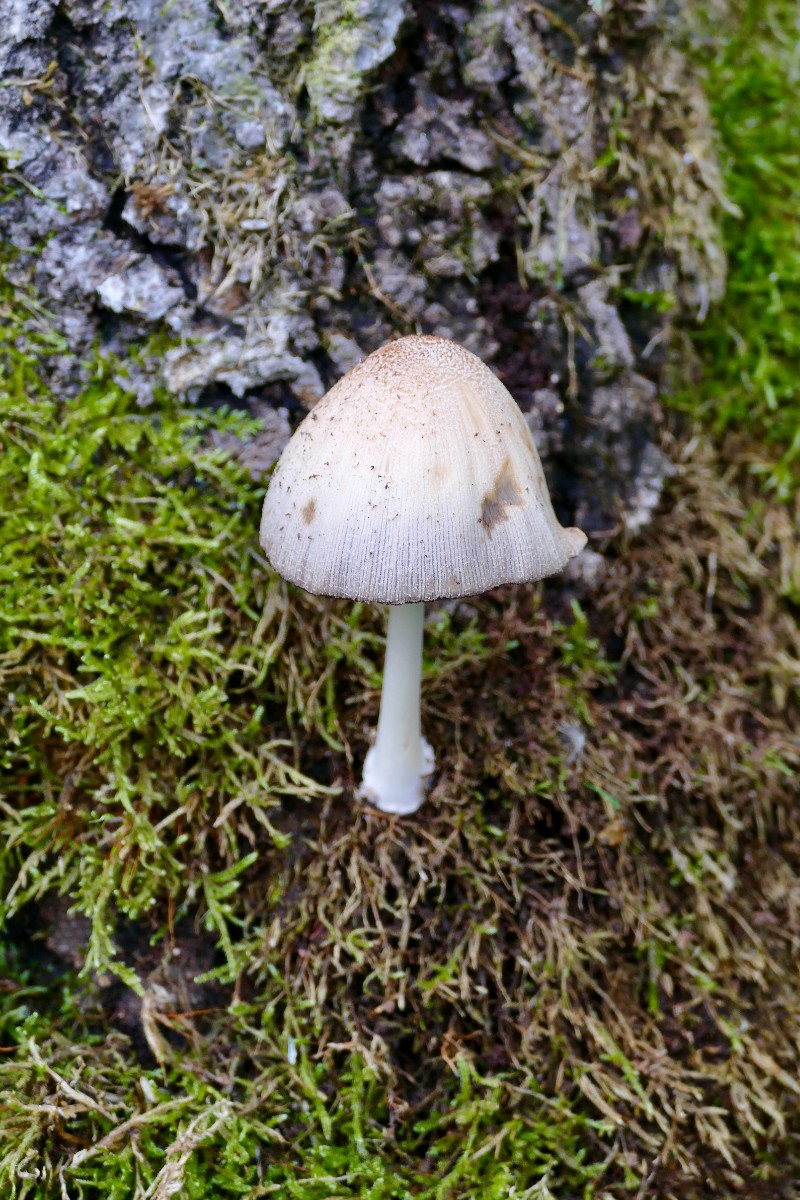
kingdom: Fungi
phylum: Basidiomycota
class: Agaricomycetes
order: Agaricales
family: Psathyrellaceae
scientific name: Psathyrellaceae
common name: mørkhatfamilien
